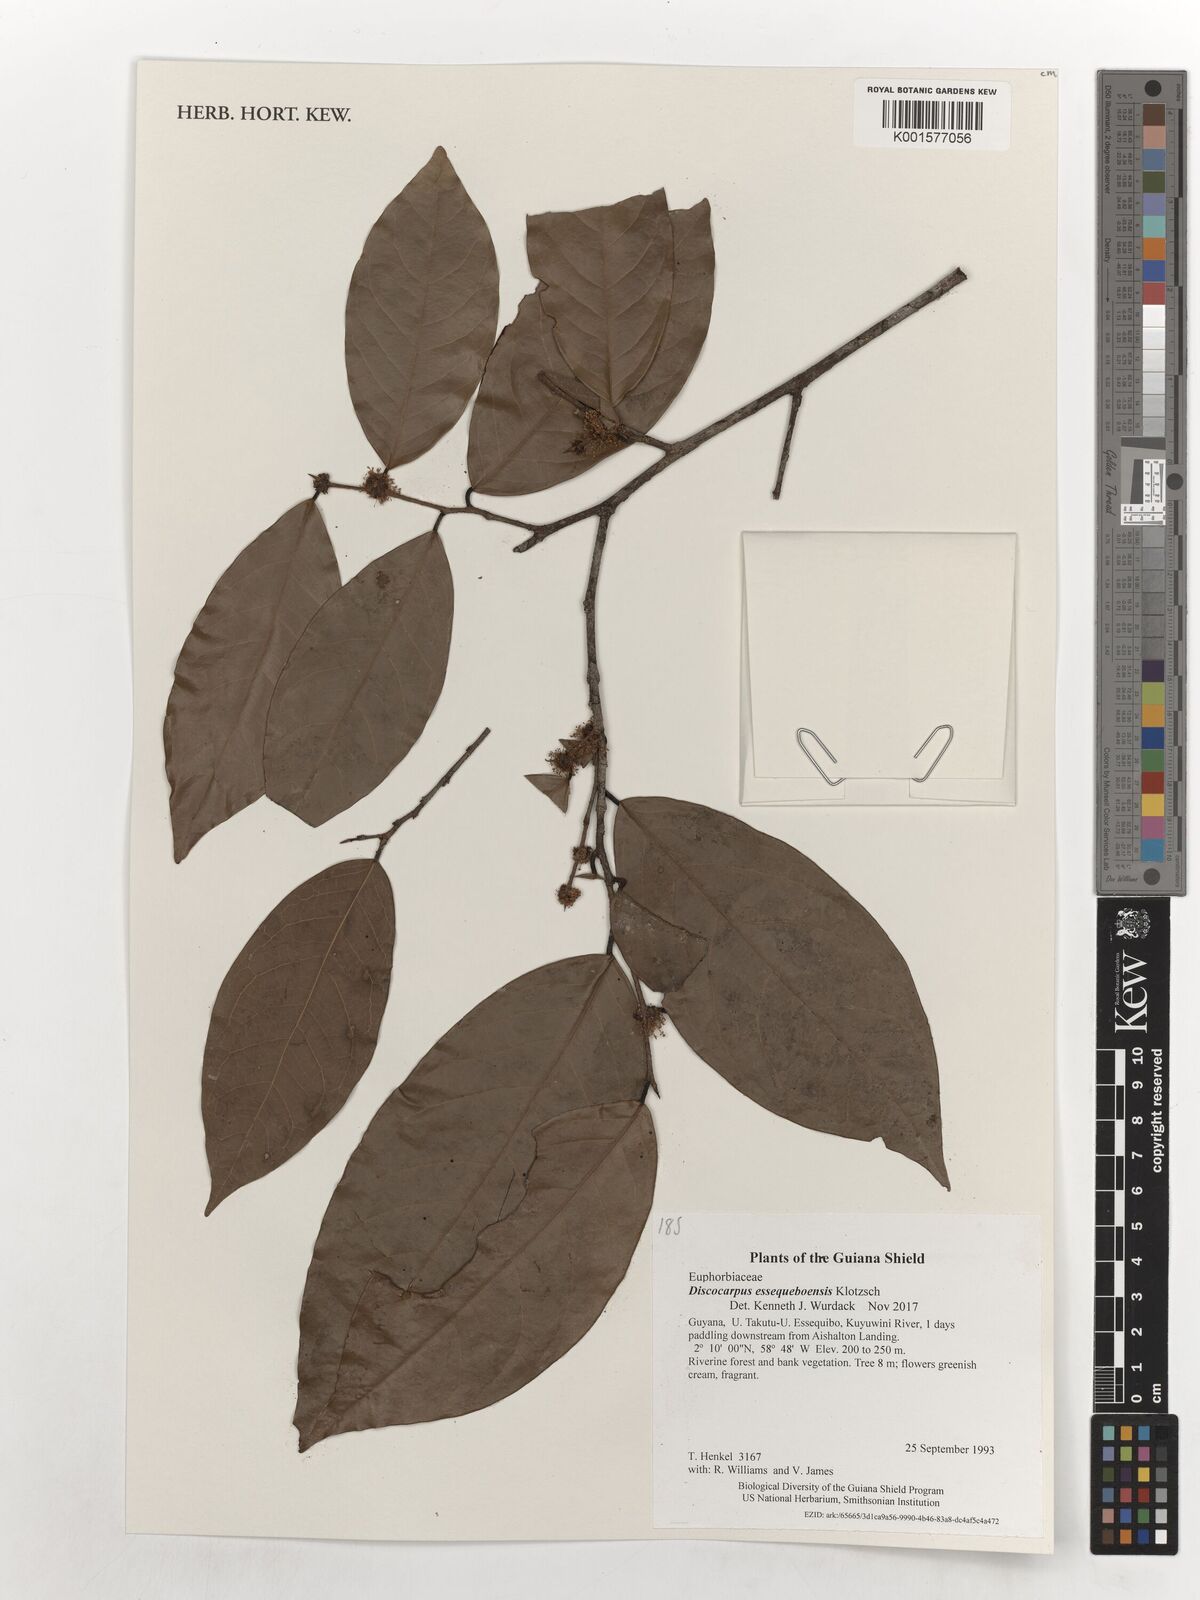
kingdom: Plantae
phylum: Tracheophyta
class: Magnoliopsida
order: Malpighiales
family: Phyllanthaceae
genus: Discocarpus
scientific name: Discocarpus essequeboensis
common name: Sqaure-wood
